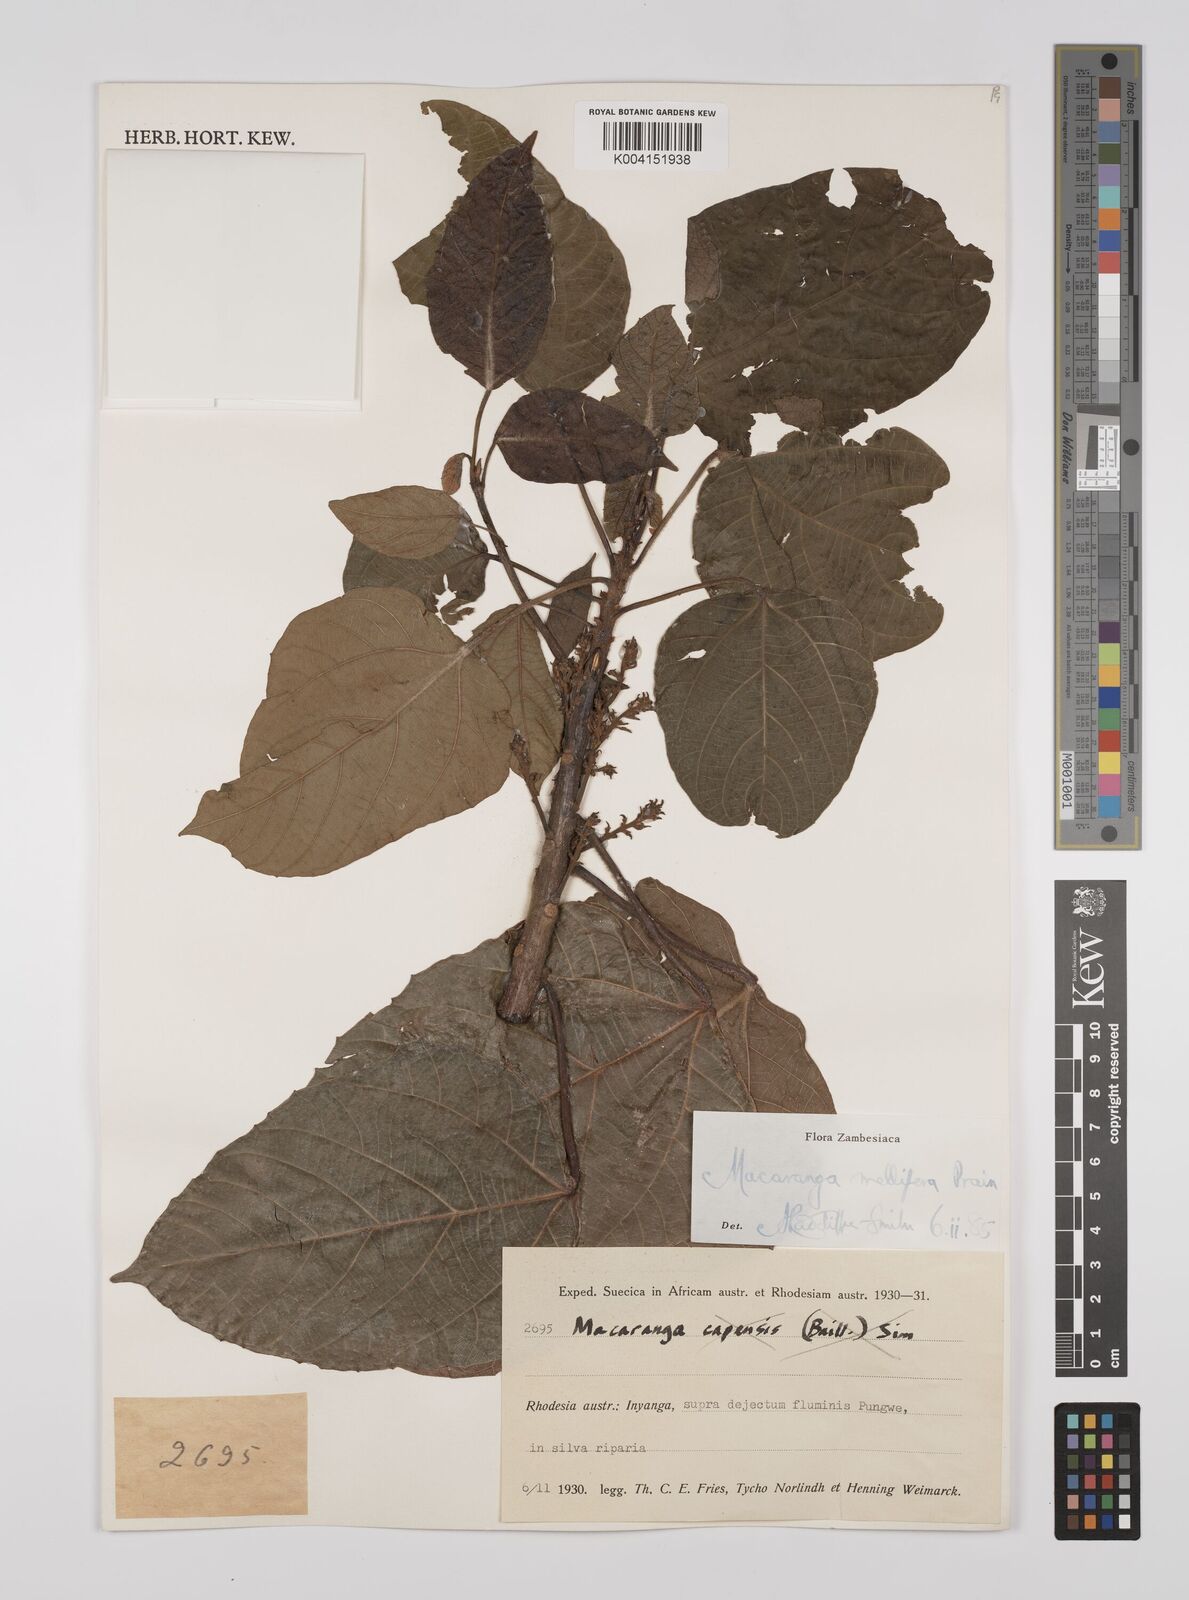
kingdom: Plantae
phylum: Tracheophyta
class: Magnoliopsida
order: Malpighiales
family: Euphorbiaceae
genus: Macaranga
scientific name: Macaranga mellifera
